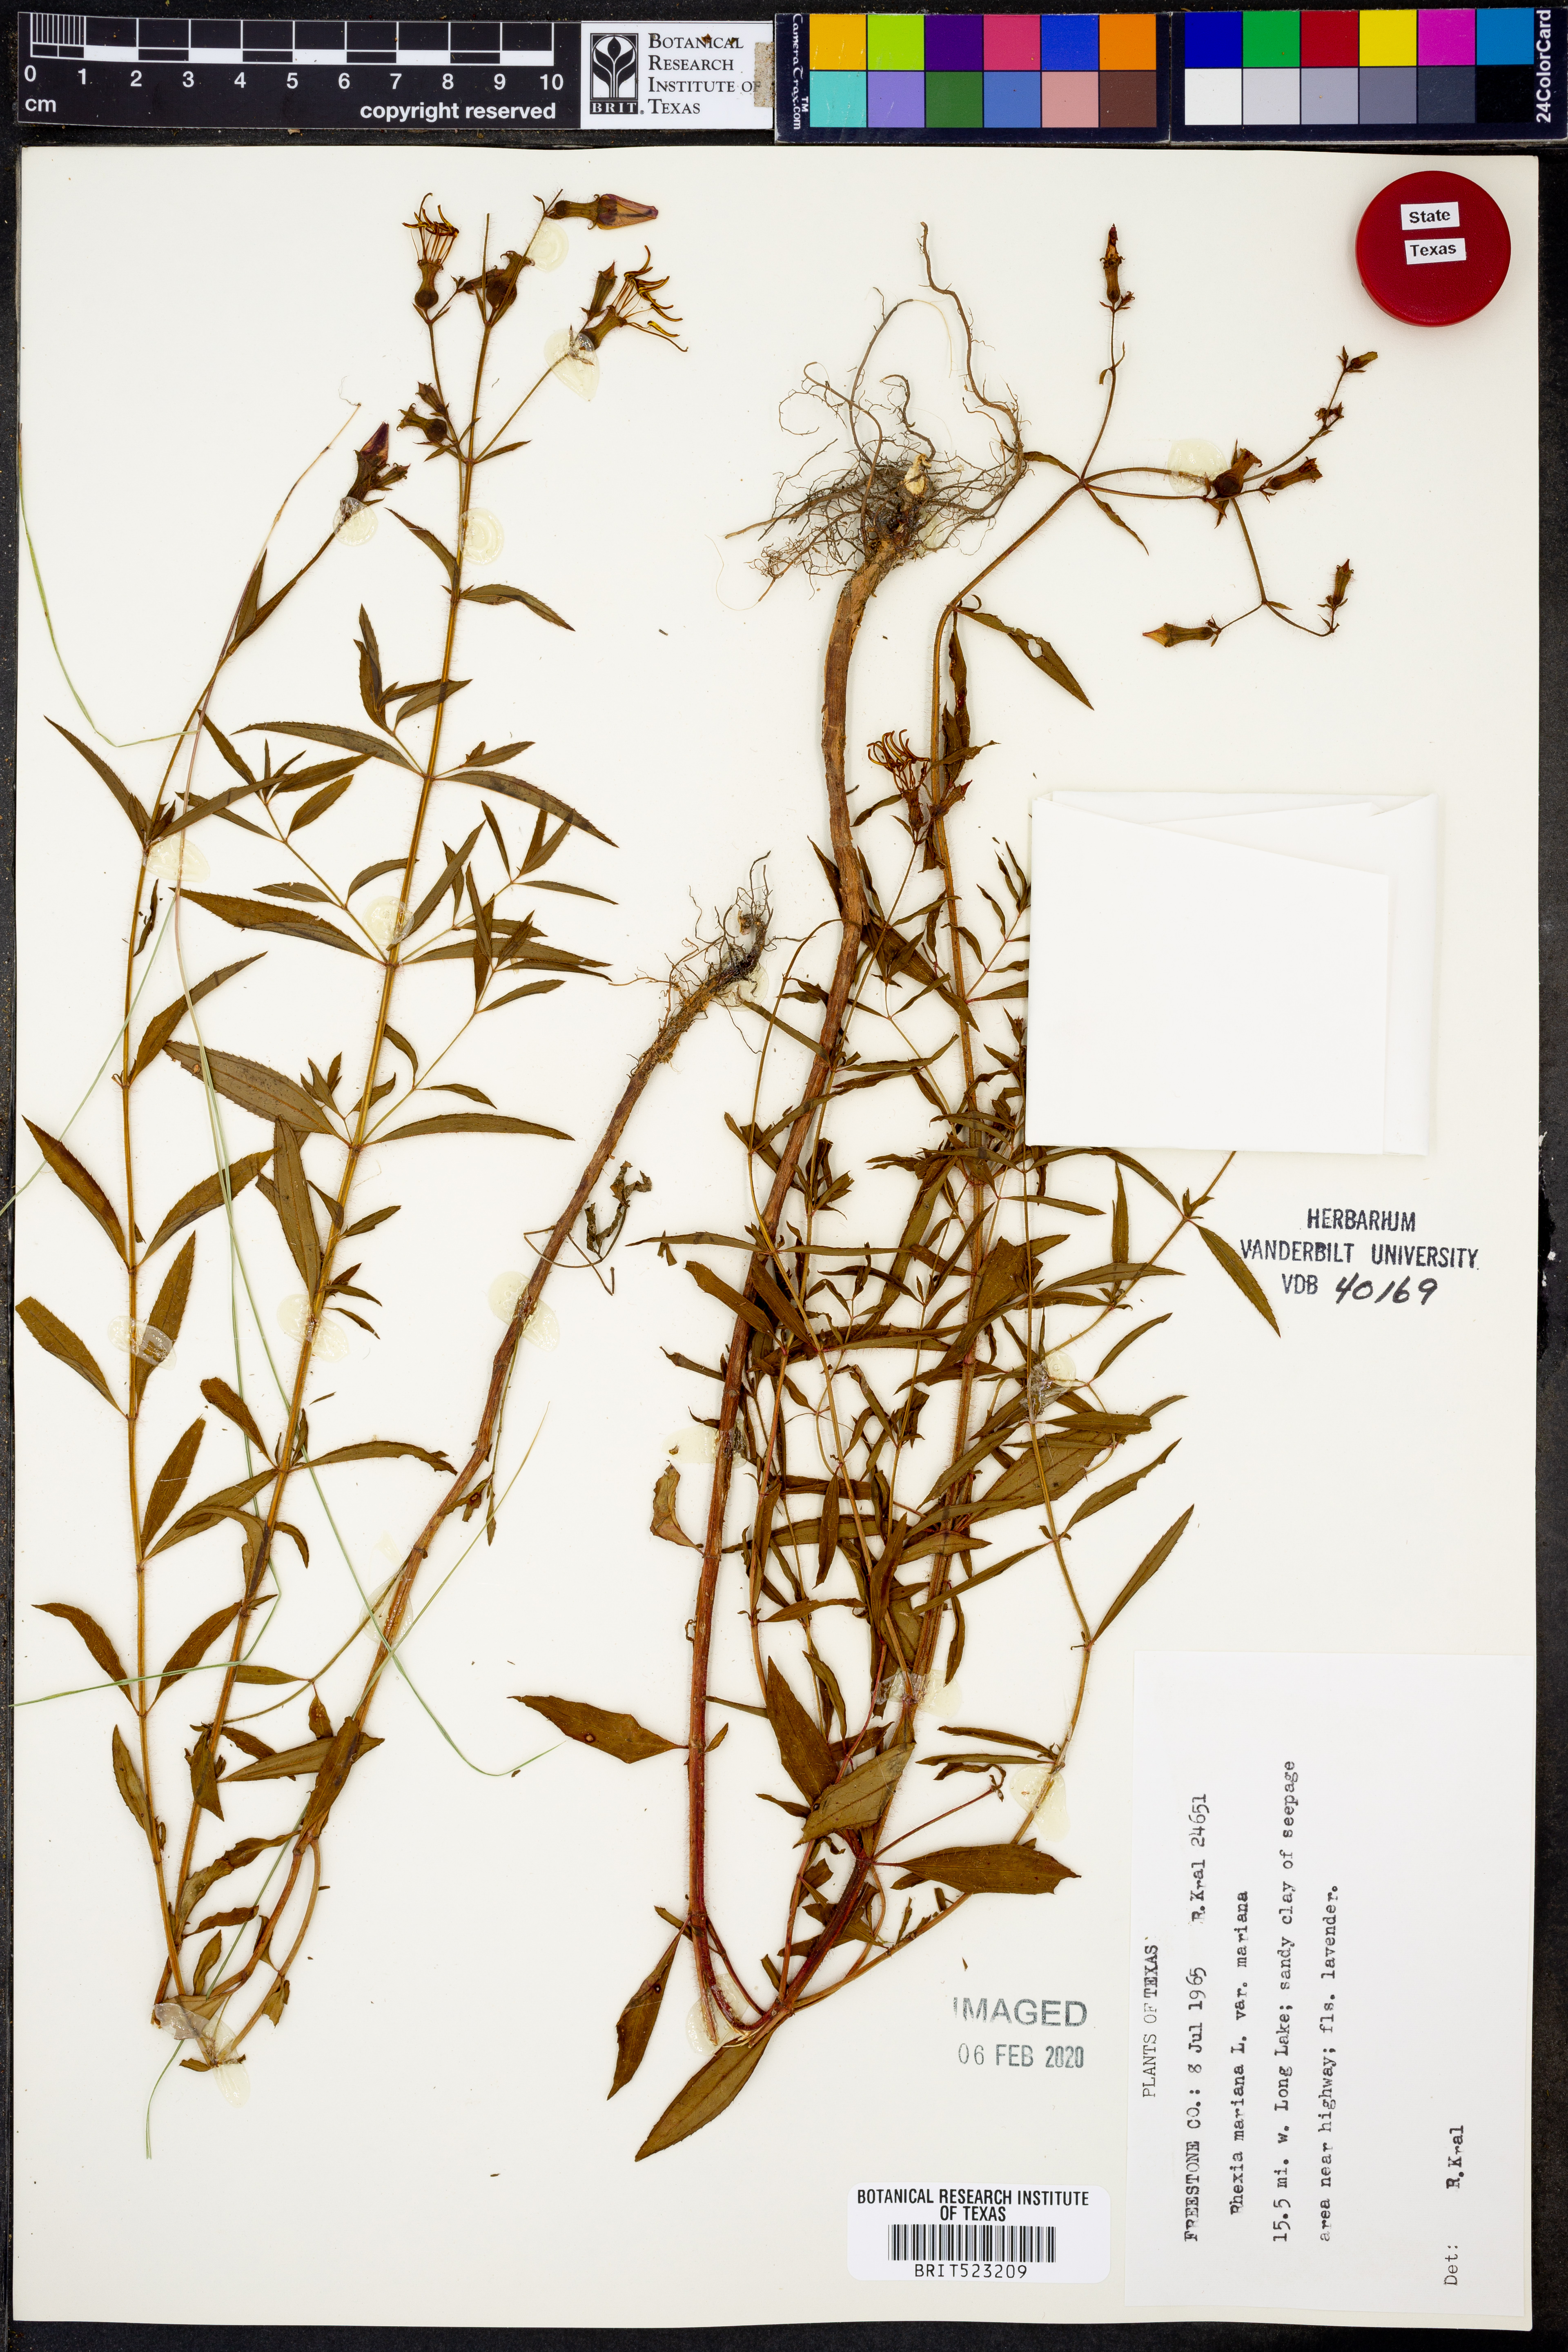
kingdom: Plantae
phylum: Tracheophyta
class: Magnoliopsida
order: Myrtales
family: Melastomataceae
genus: Rhexia
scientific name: Rhexia mariana
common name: Dull meadow-pitcher
